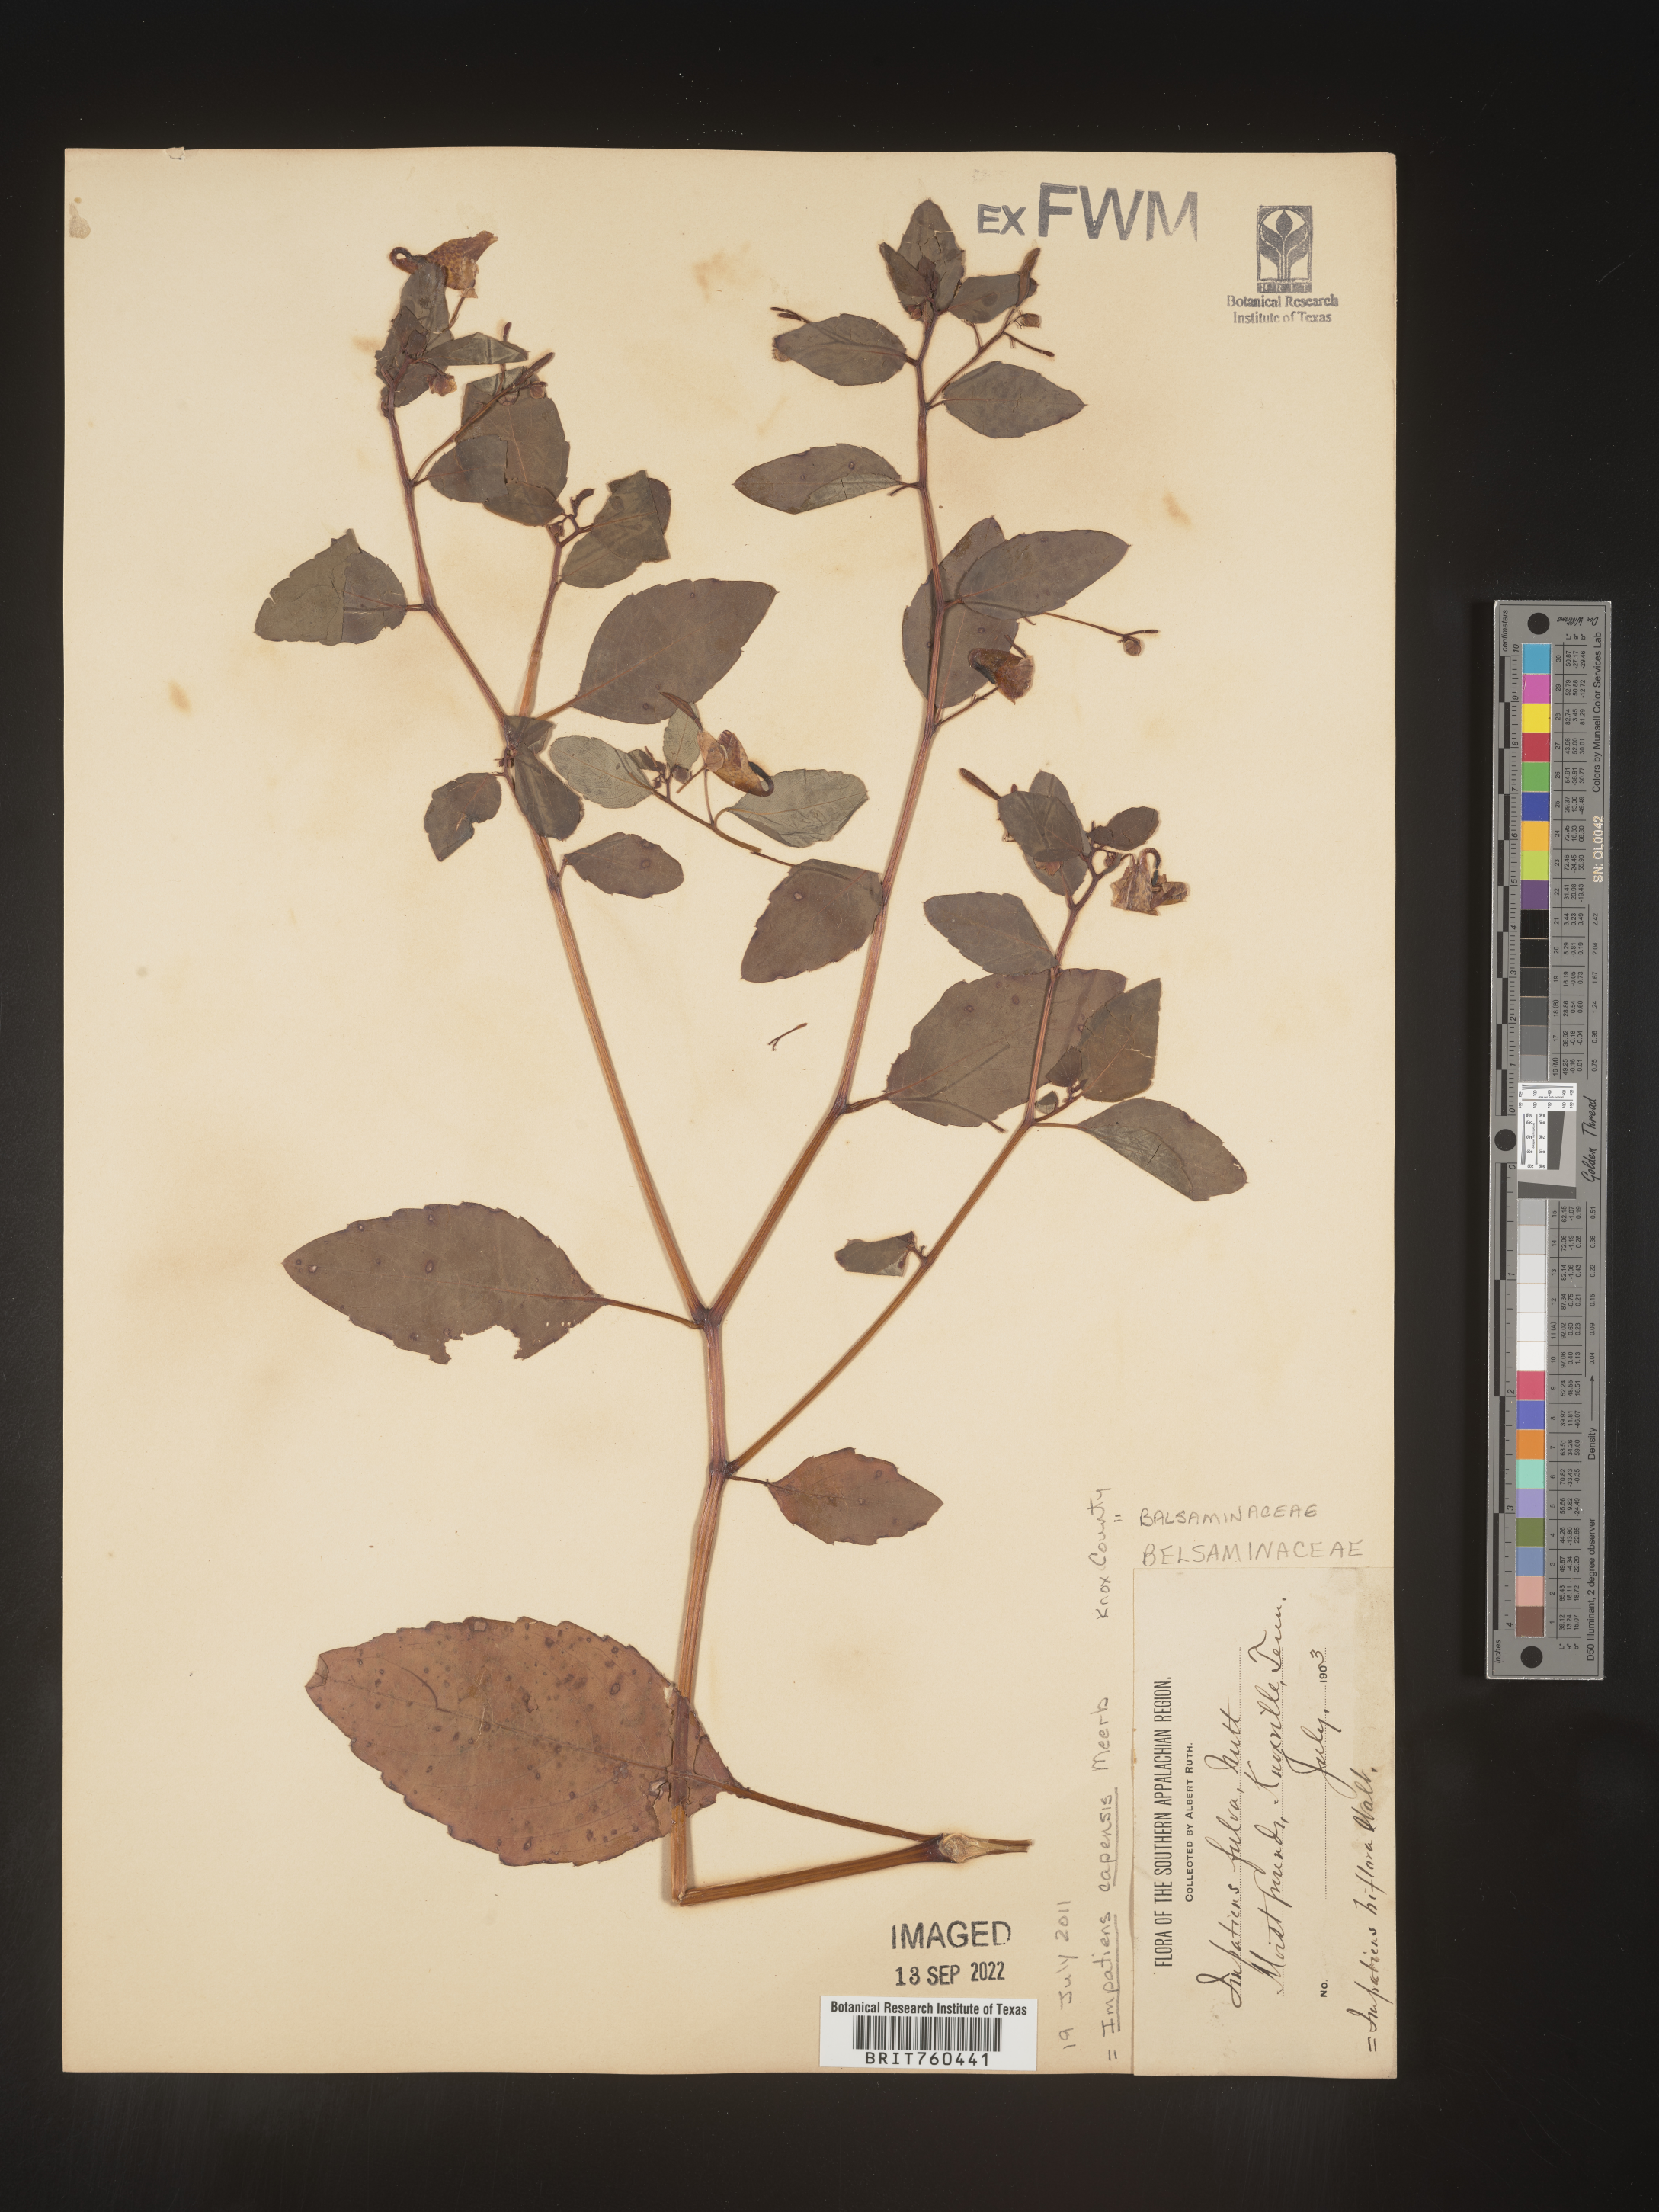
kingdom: Plantae
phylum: Tracheophyta
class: Magnoliopsida
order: Ericales
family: Balsaminaceae
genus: Impatiens
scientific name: Impatiens capensis
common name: Orange balsam
